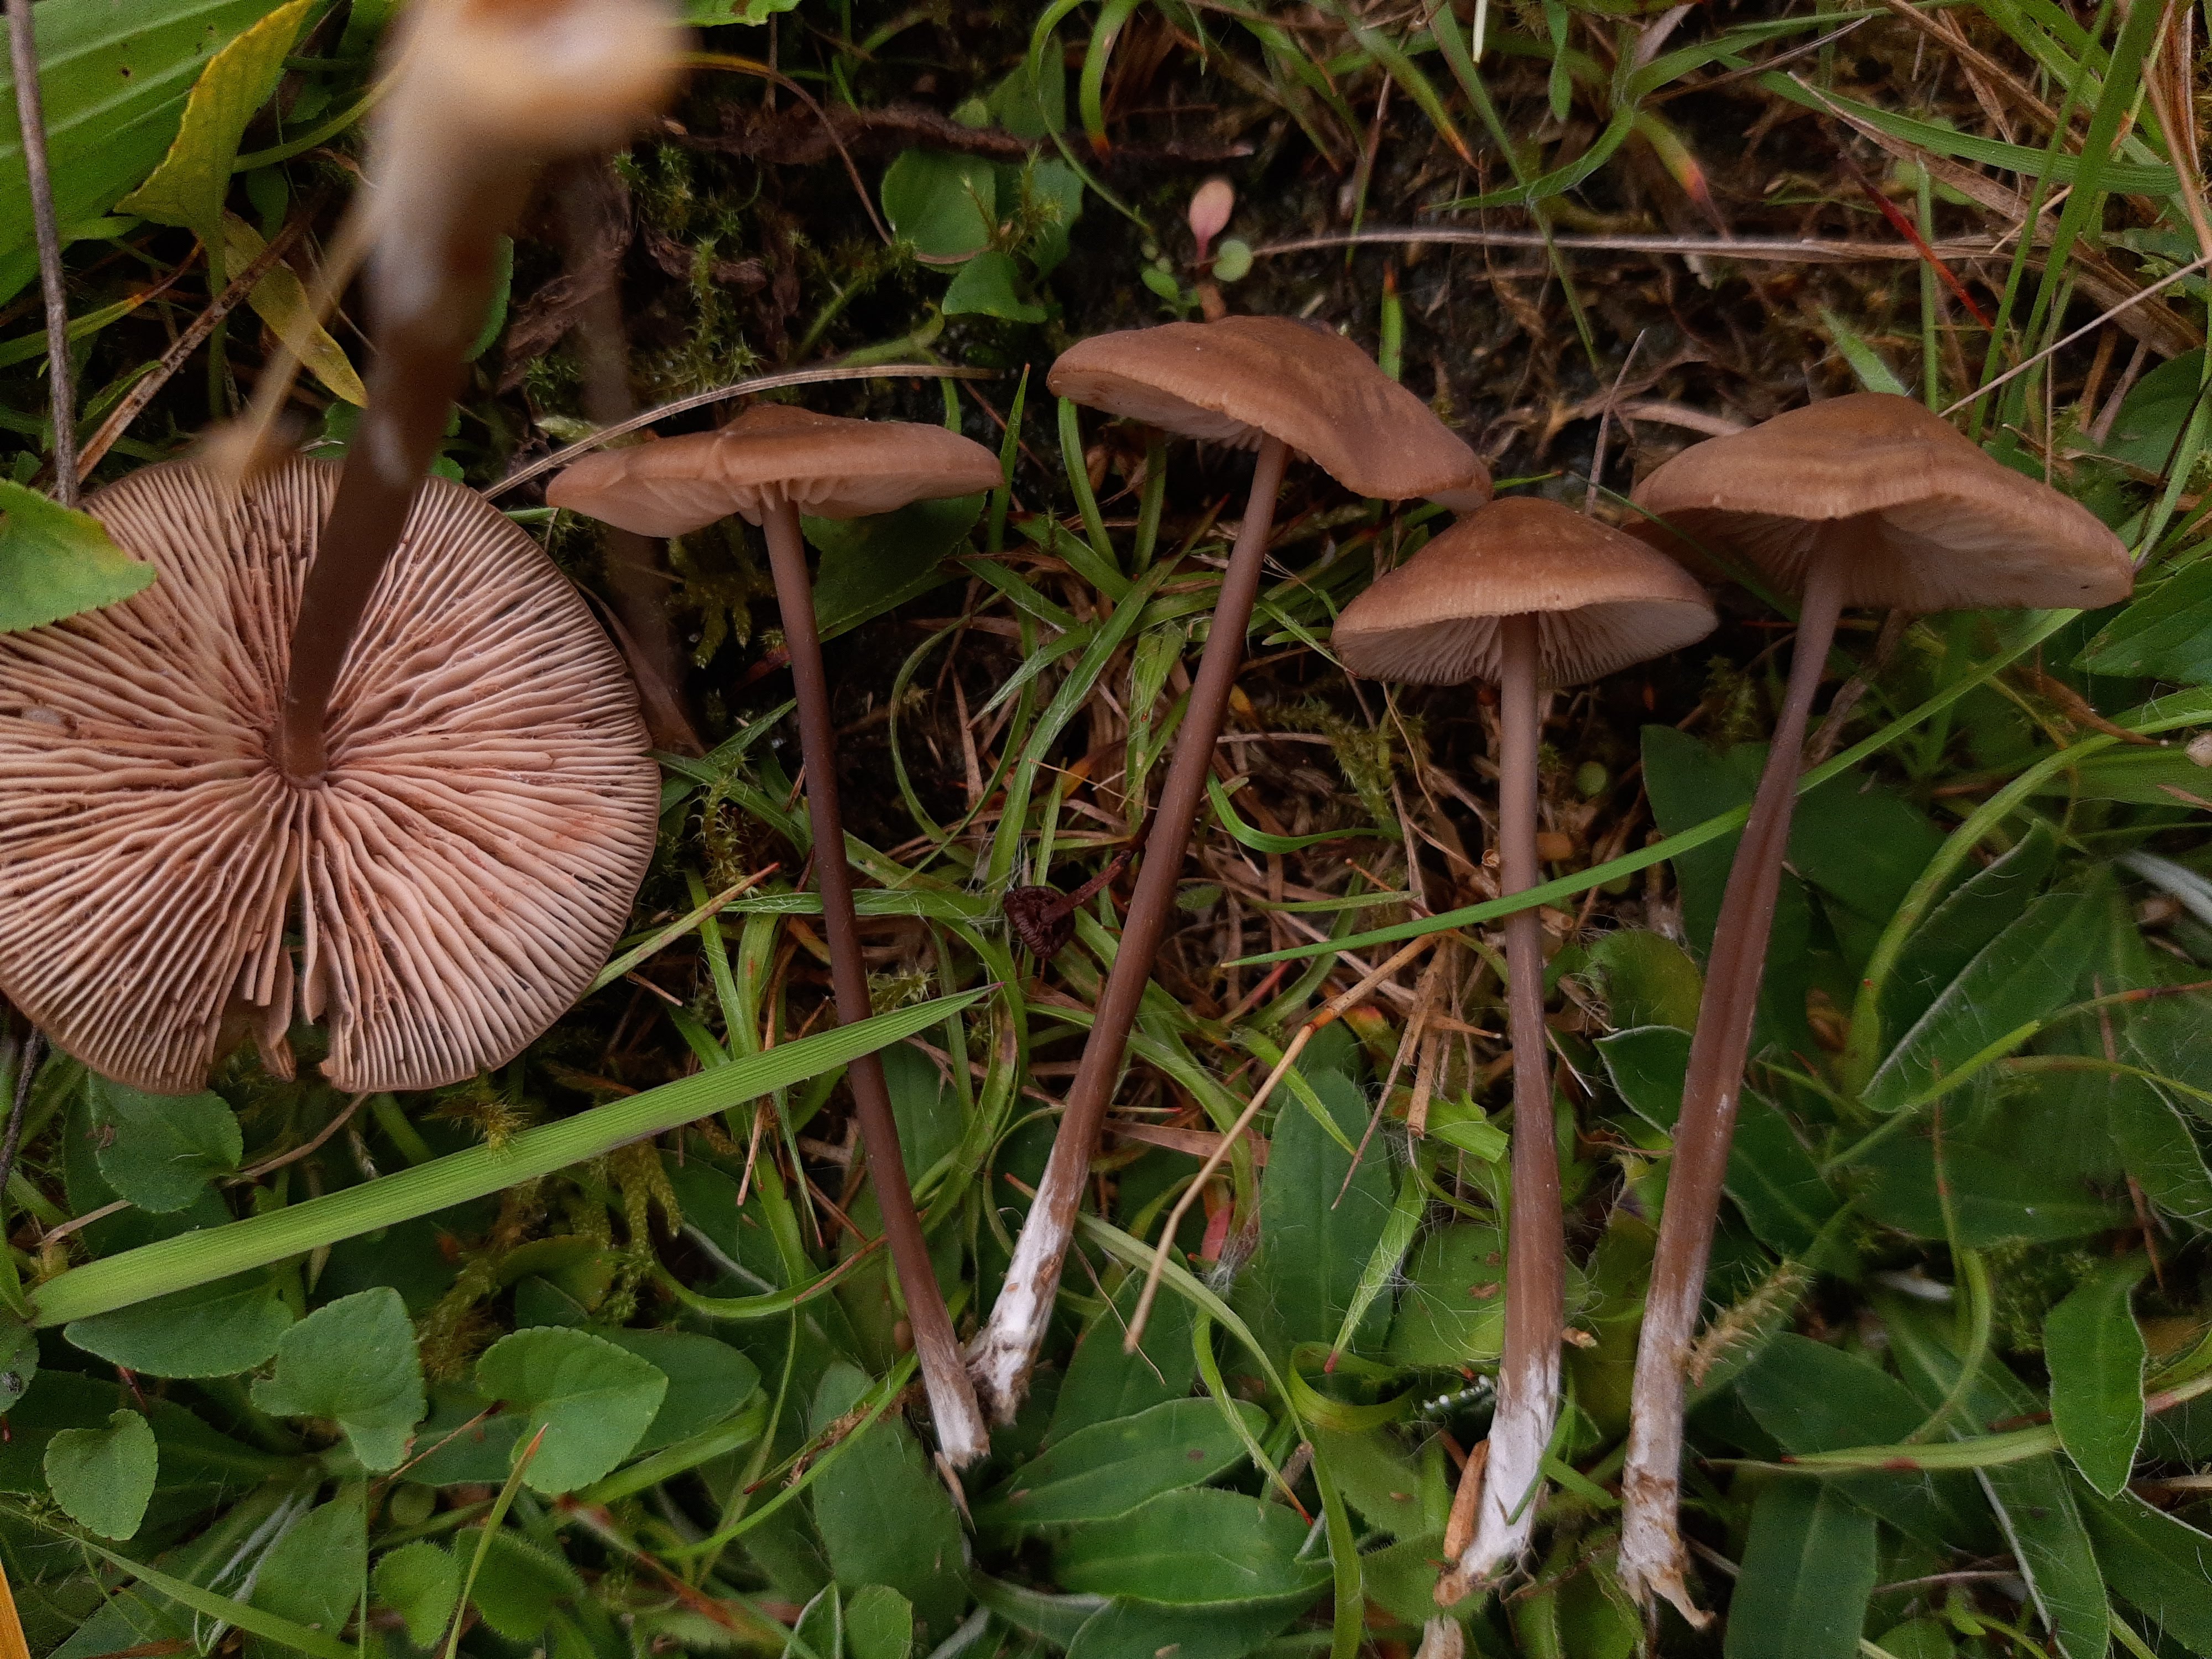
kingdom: Fungi
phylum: Basidiomycota
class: Agaricomycetes
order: Agaricales
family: Entolomataceae
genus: Entoloma
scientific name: Entoloma
